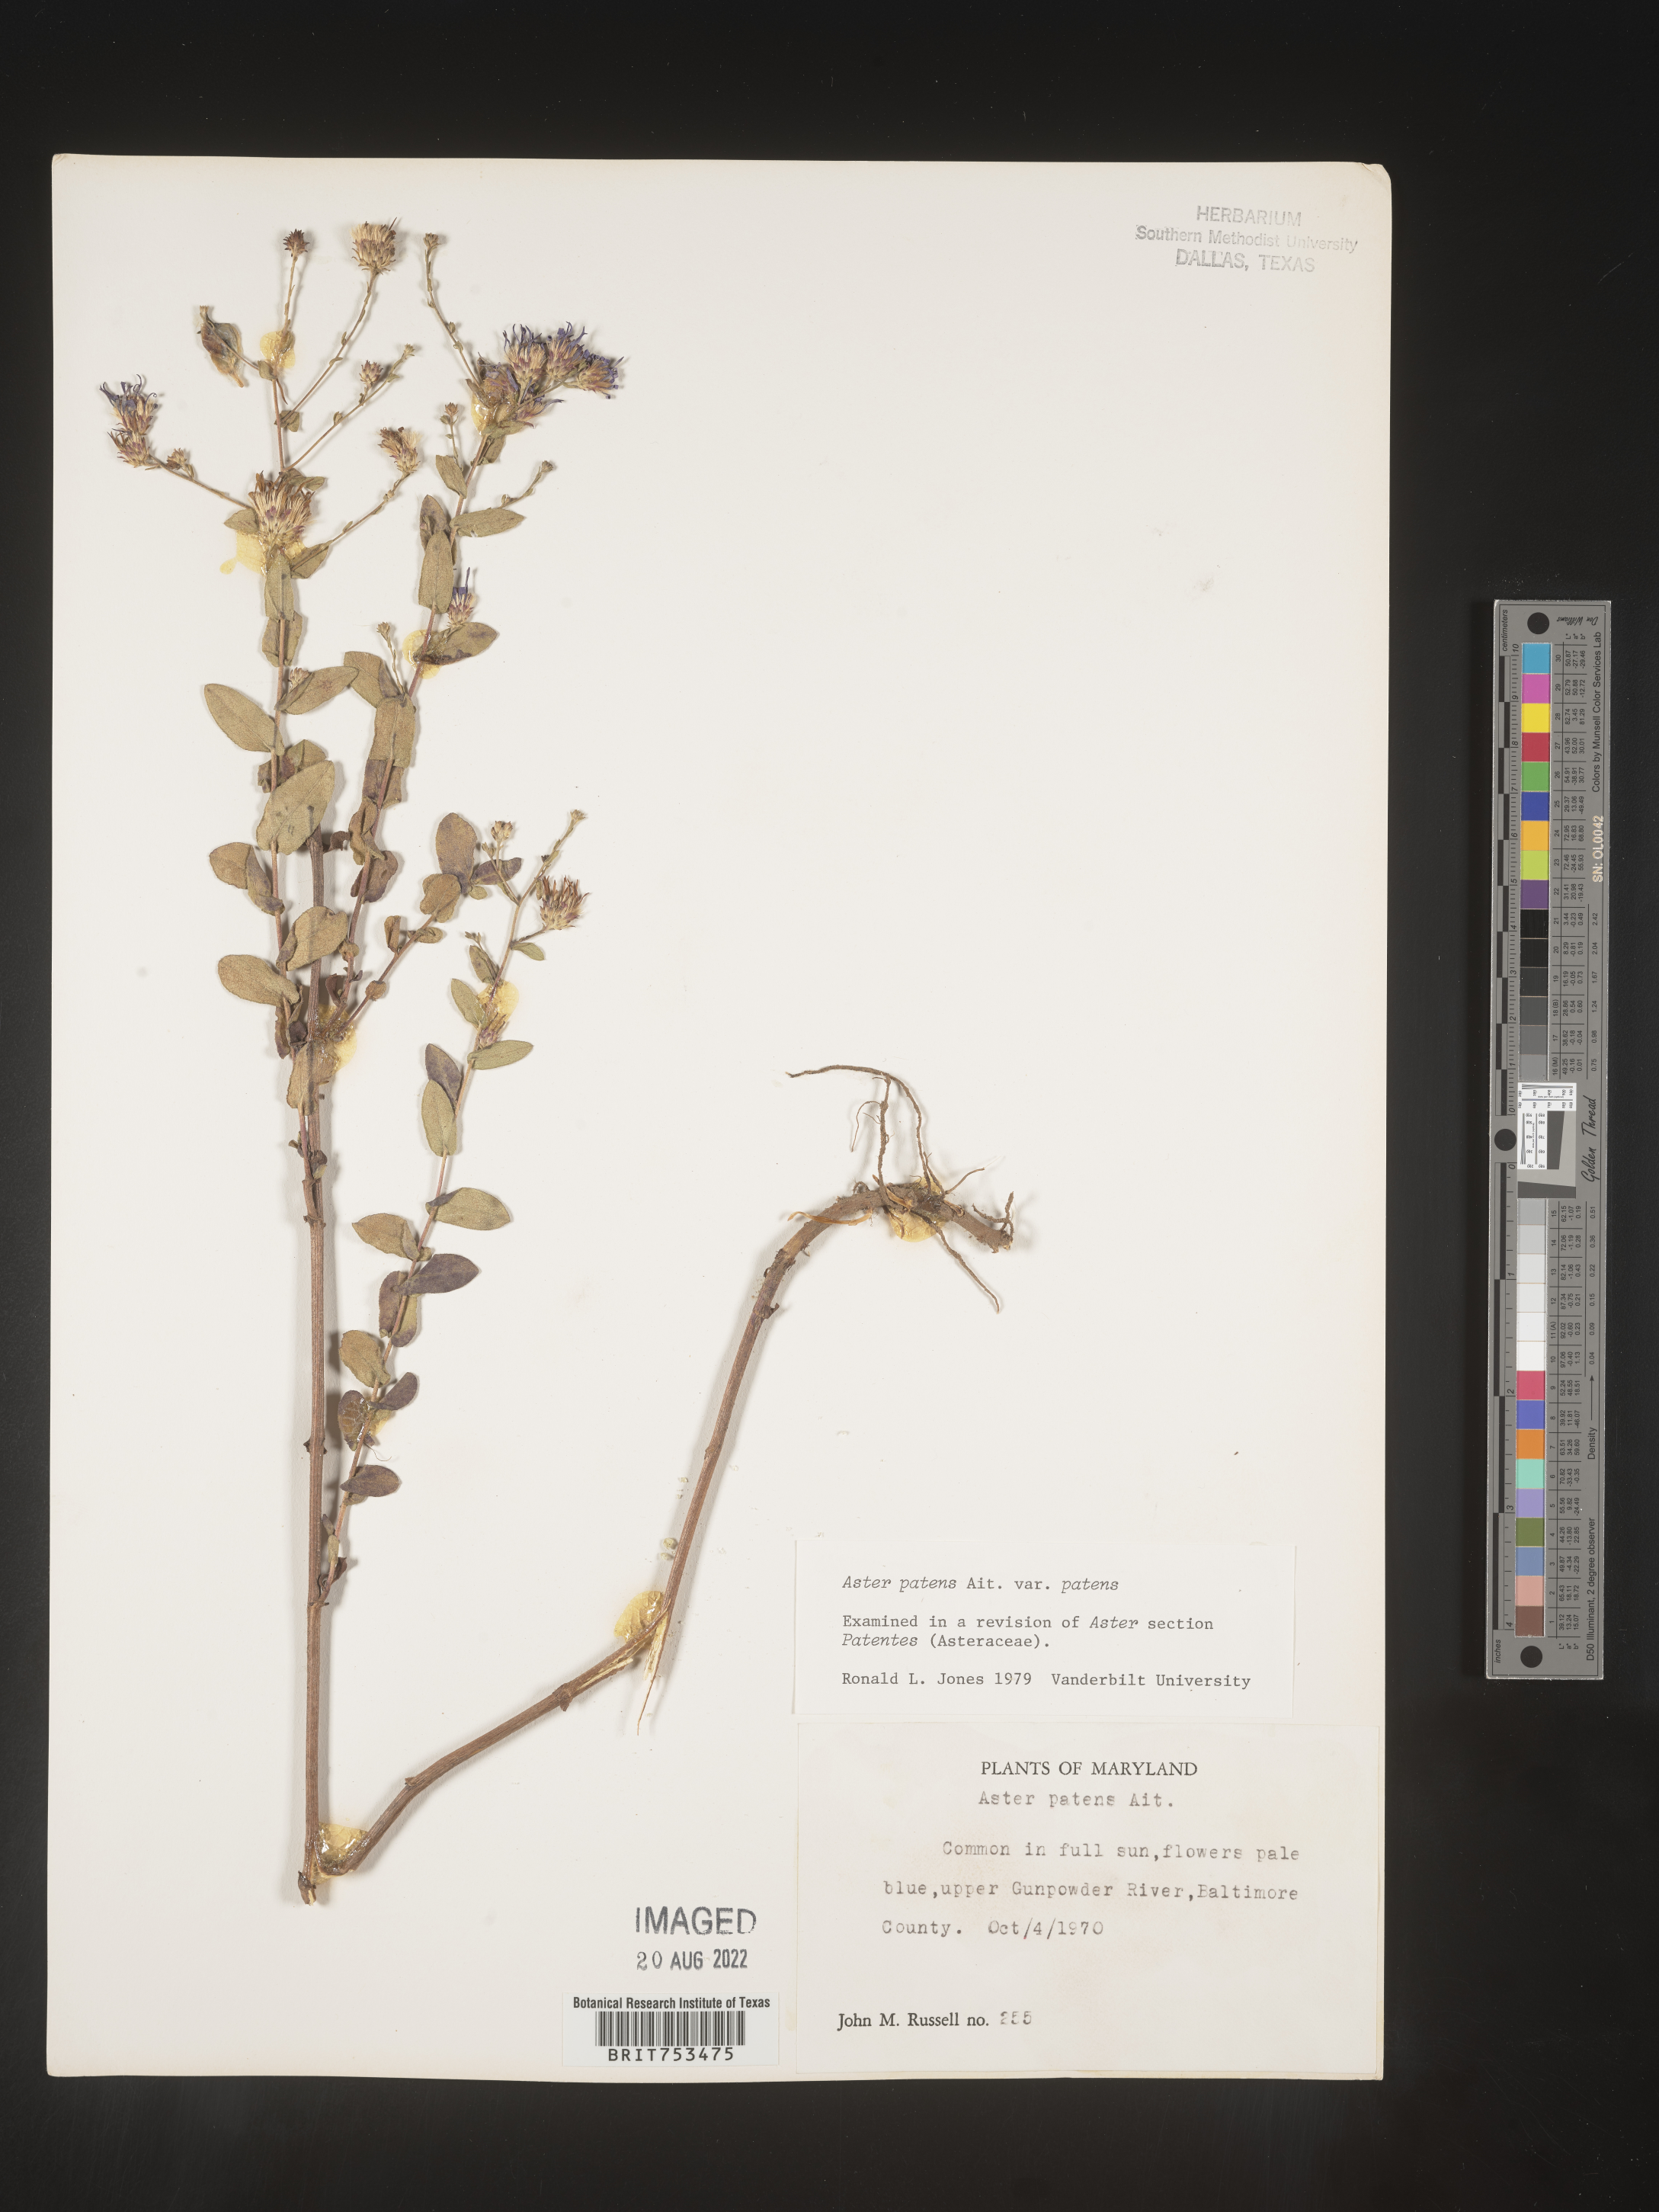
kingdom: Plantae
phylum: Tracheophyta
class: Magnoliopsida
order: Asterales
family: Asteraceae
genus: Symphyotrichum
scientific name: Symphyotrichum patens
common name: Late purple aster
